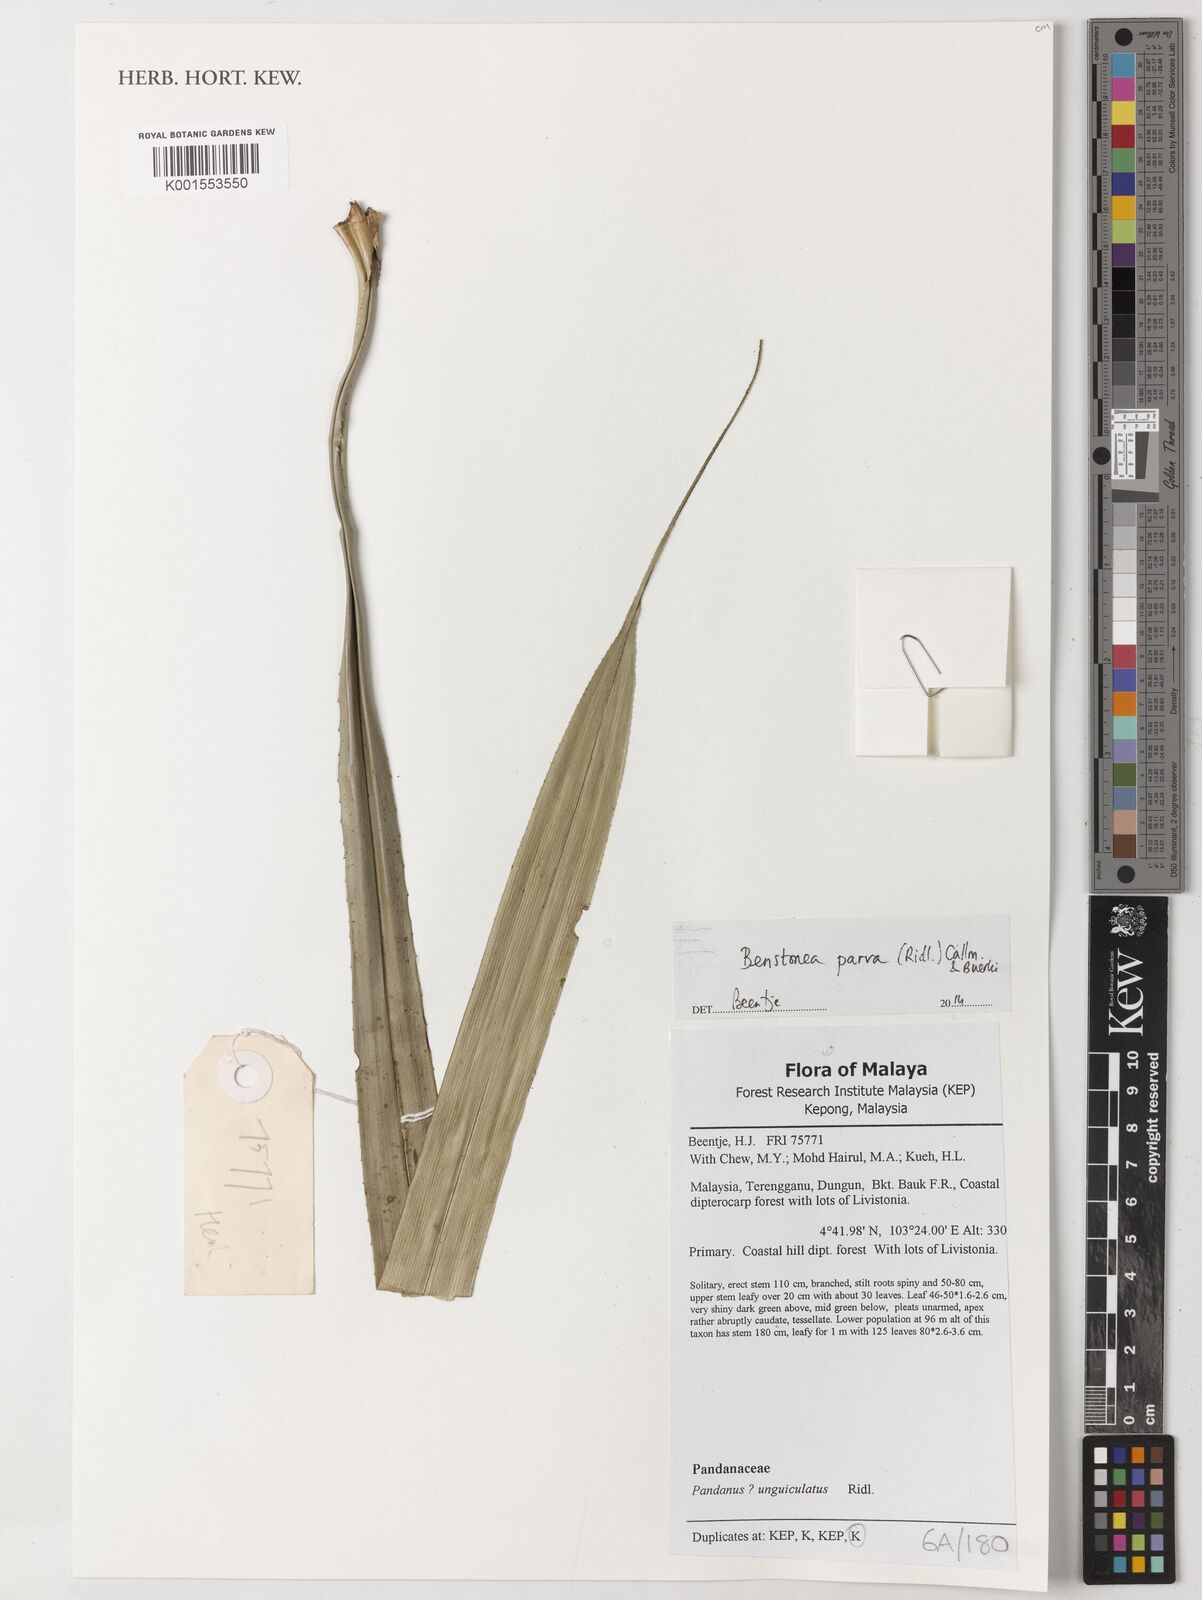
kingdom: Plantae
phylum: Tracheophyta
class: Liliopsida
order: Pandanales
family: Pandanaceae
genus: Benstonea
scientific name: Benstonea parva
